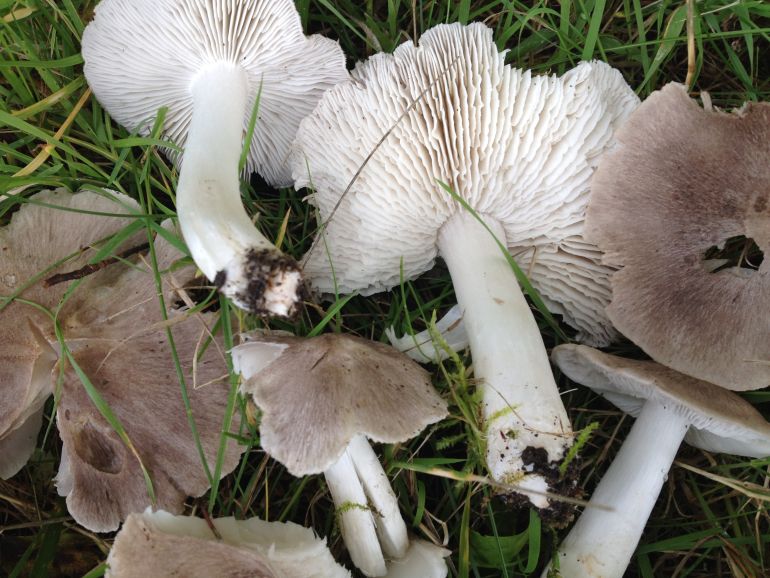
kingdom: Fungi
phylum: Basidiomycota
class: Agaricomycetes
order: Agaricales
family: Tricholomataceae
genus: Tricholoma
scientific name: Tricholoma terreum
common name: jordfarvet ridderhat
